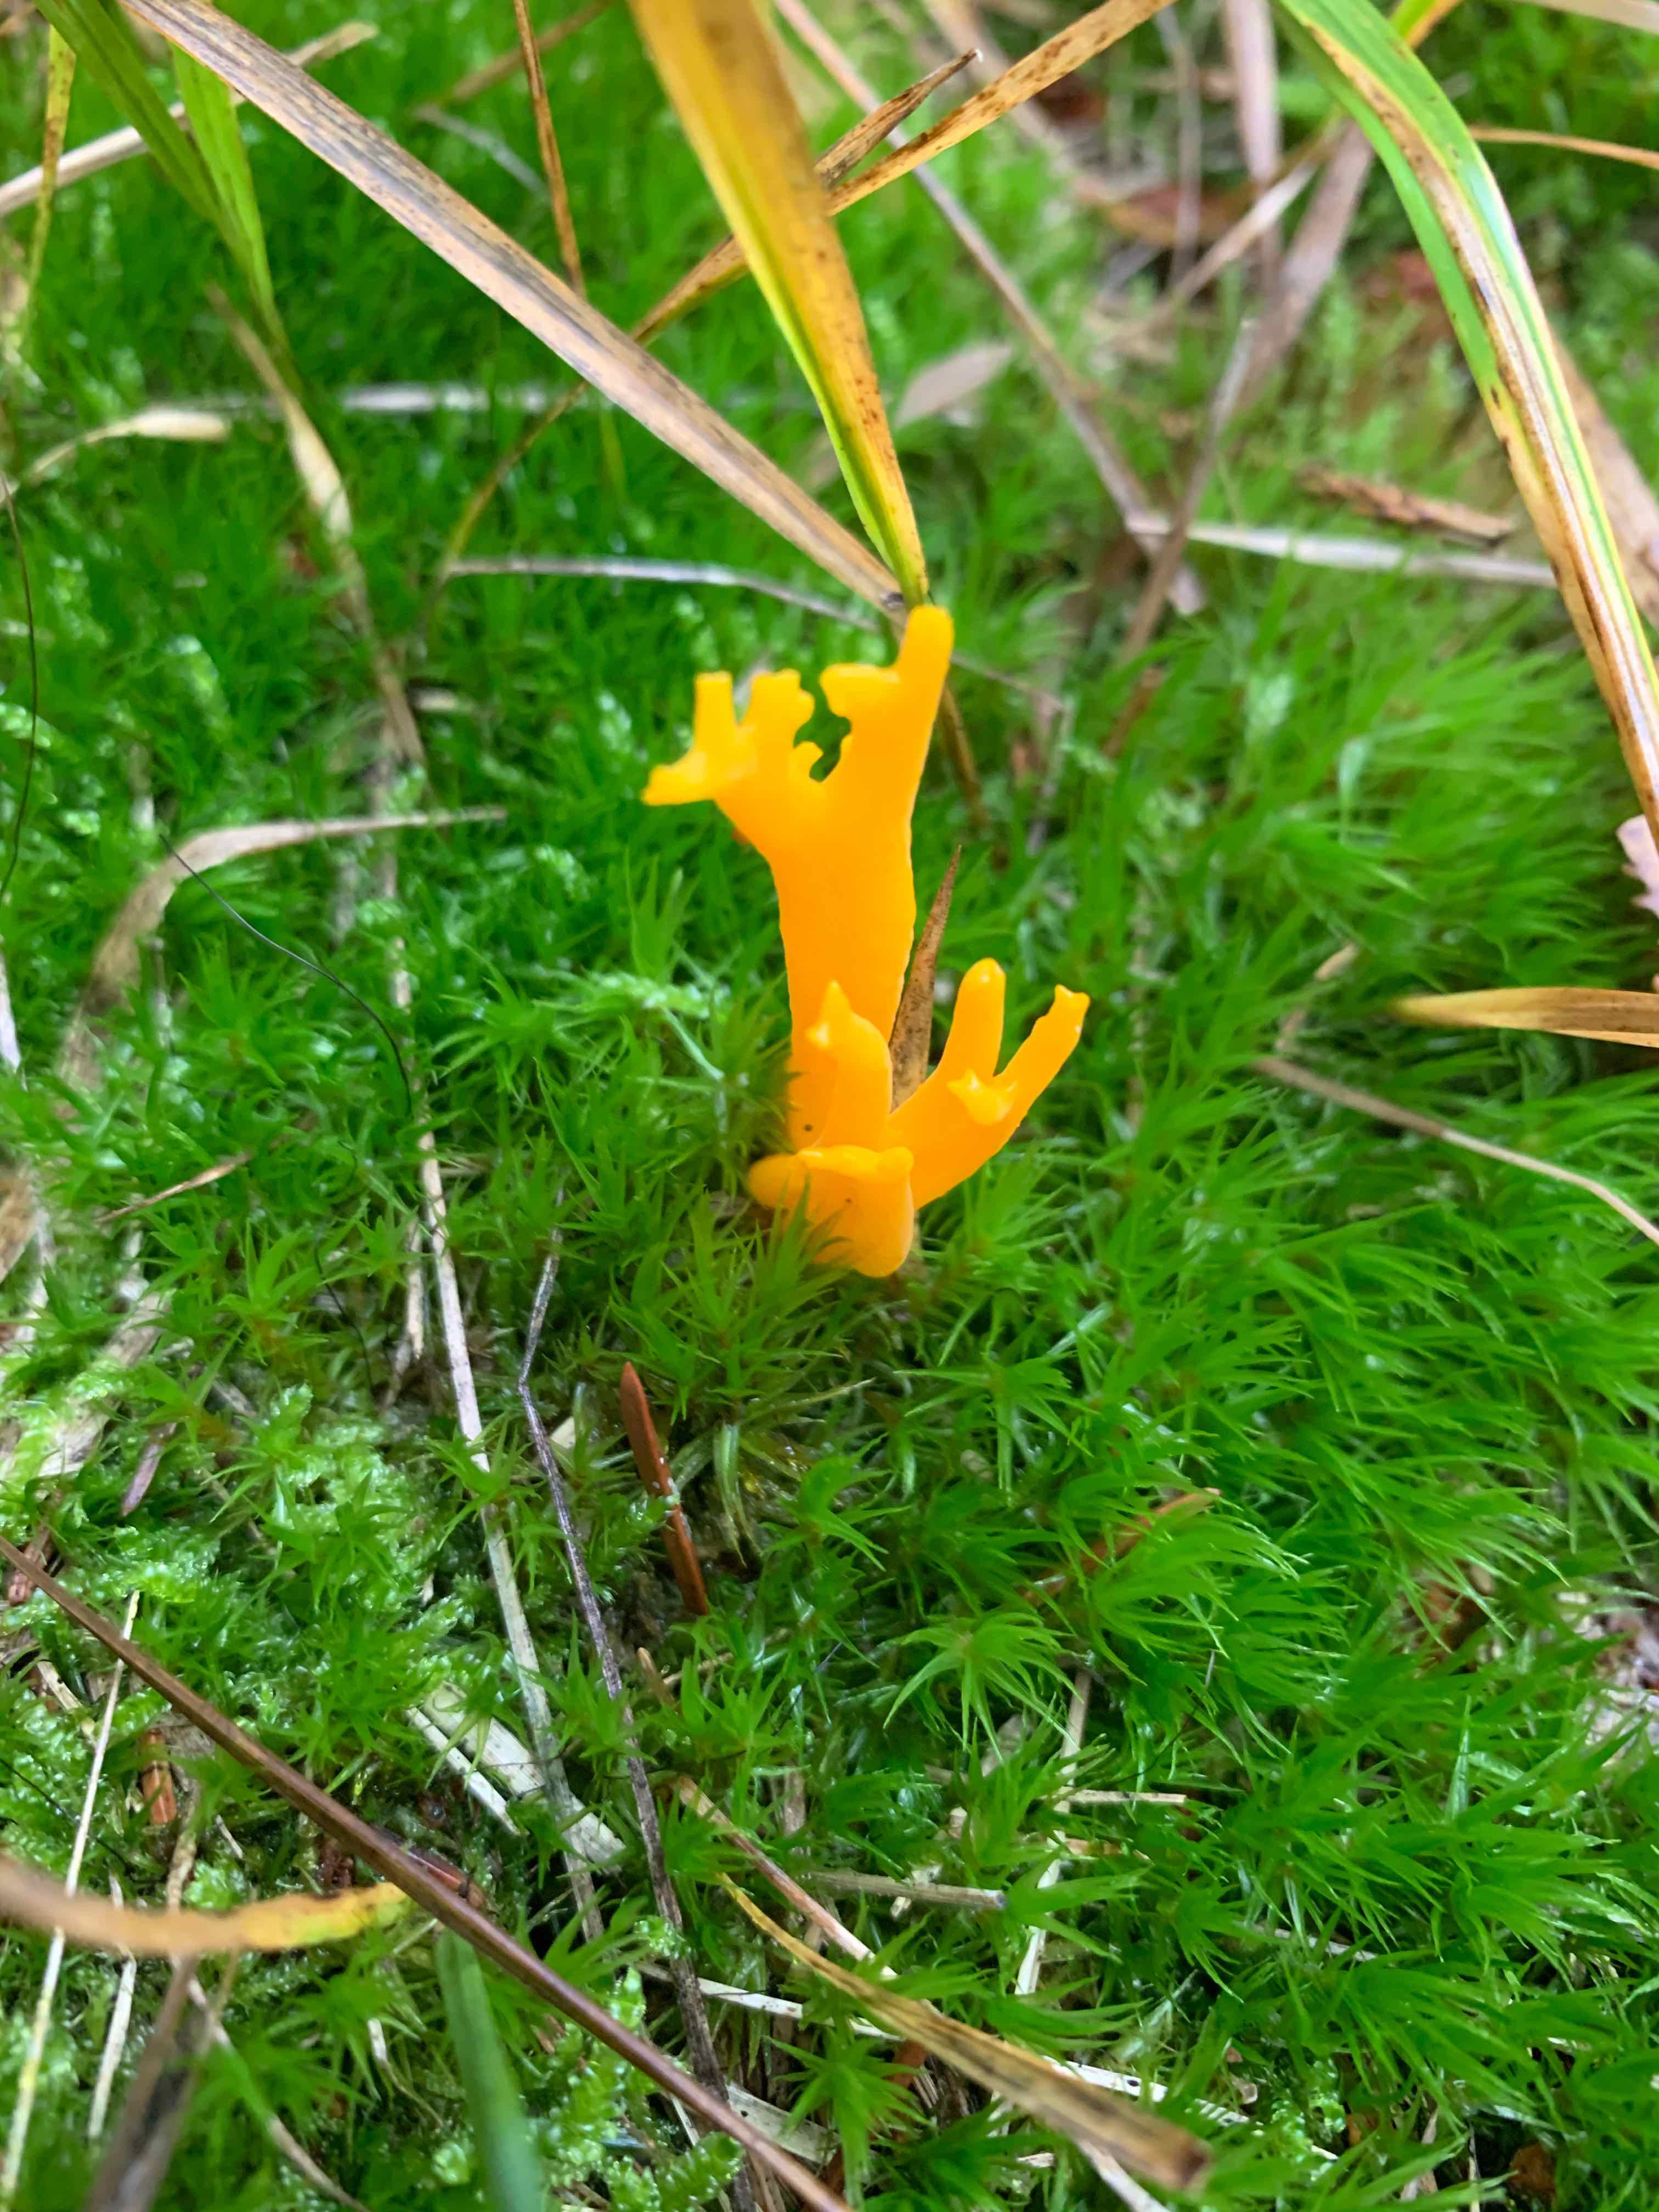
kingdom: Fungi
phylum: Basidiomycota
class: Dacrymycetes
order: Dacrymycetales
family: Dacrymycetaceae
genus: Calocera
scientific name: Calocera viscosa
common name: almindelig guldgaffel
